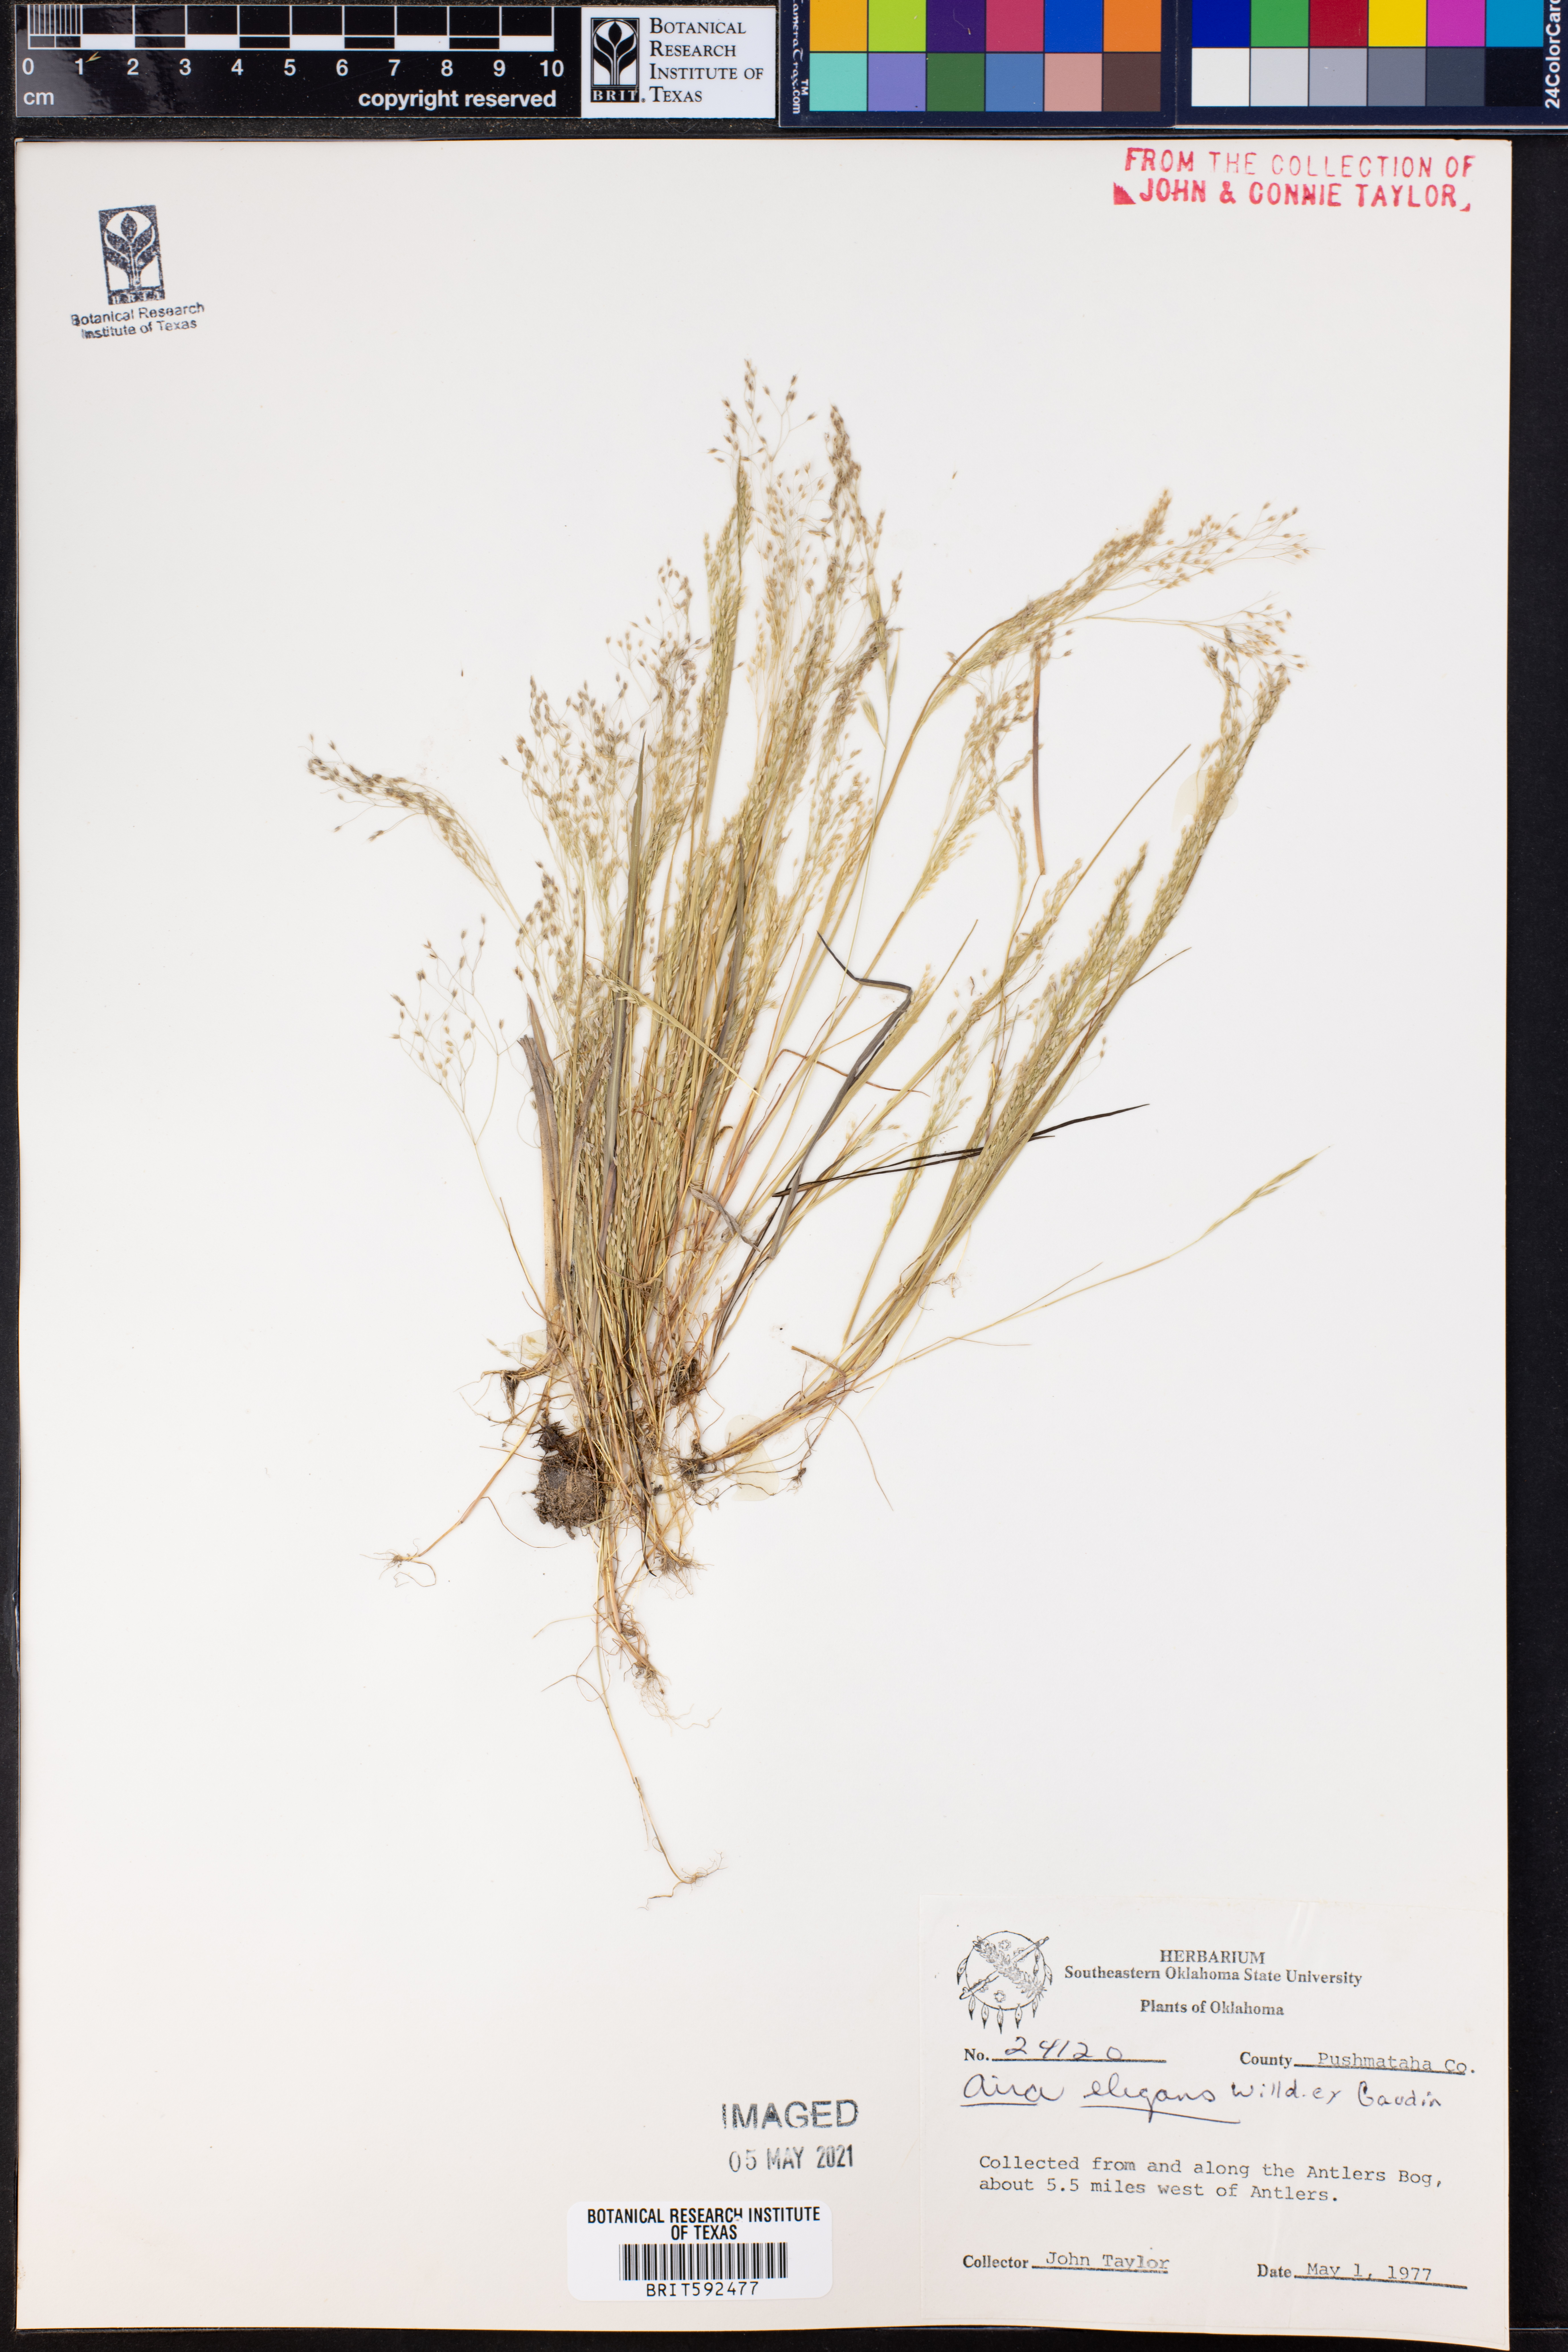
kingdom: Plantae
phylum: Tracheophyta
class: Liliopsida
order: Poales
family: Poaceae
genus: Aira
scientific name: Aira elegans
